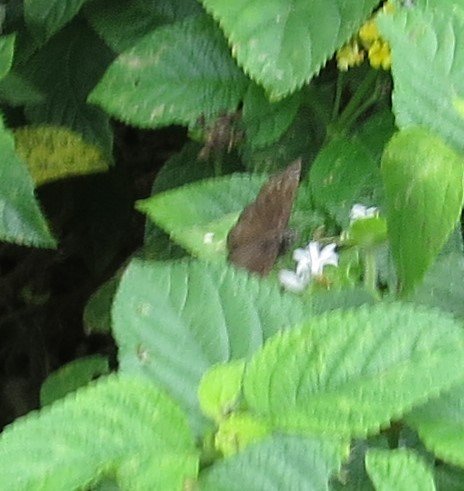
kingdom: Animalia
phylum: Arthropoda
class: Insecta
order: Lepidoptera
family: Hesperiidae
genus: Gesta
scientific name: Gesta
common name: Horace's Duskywing
